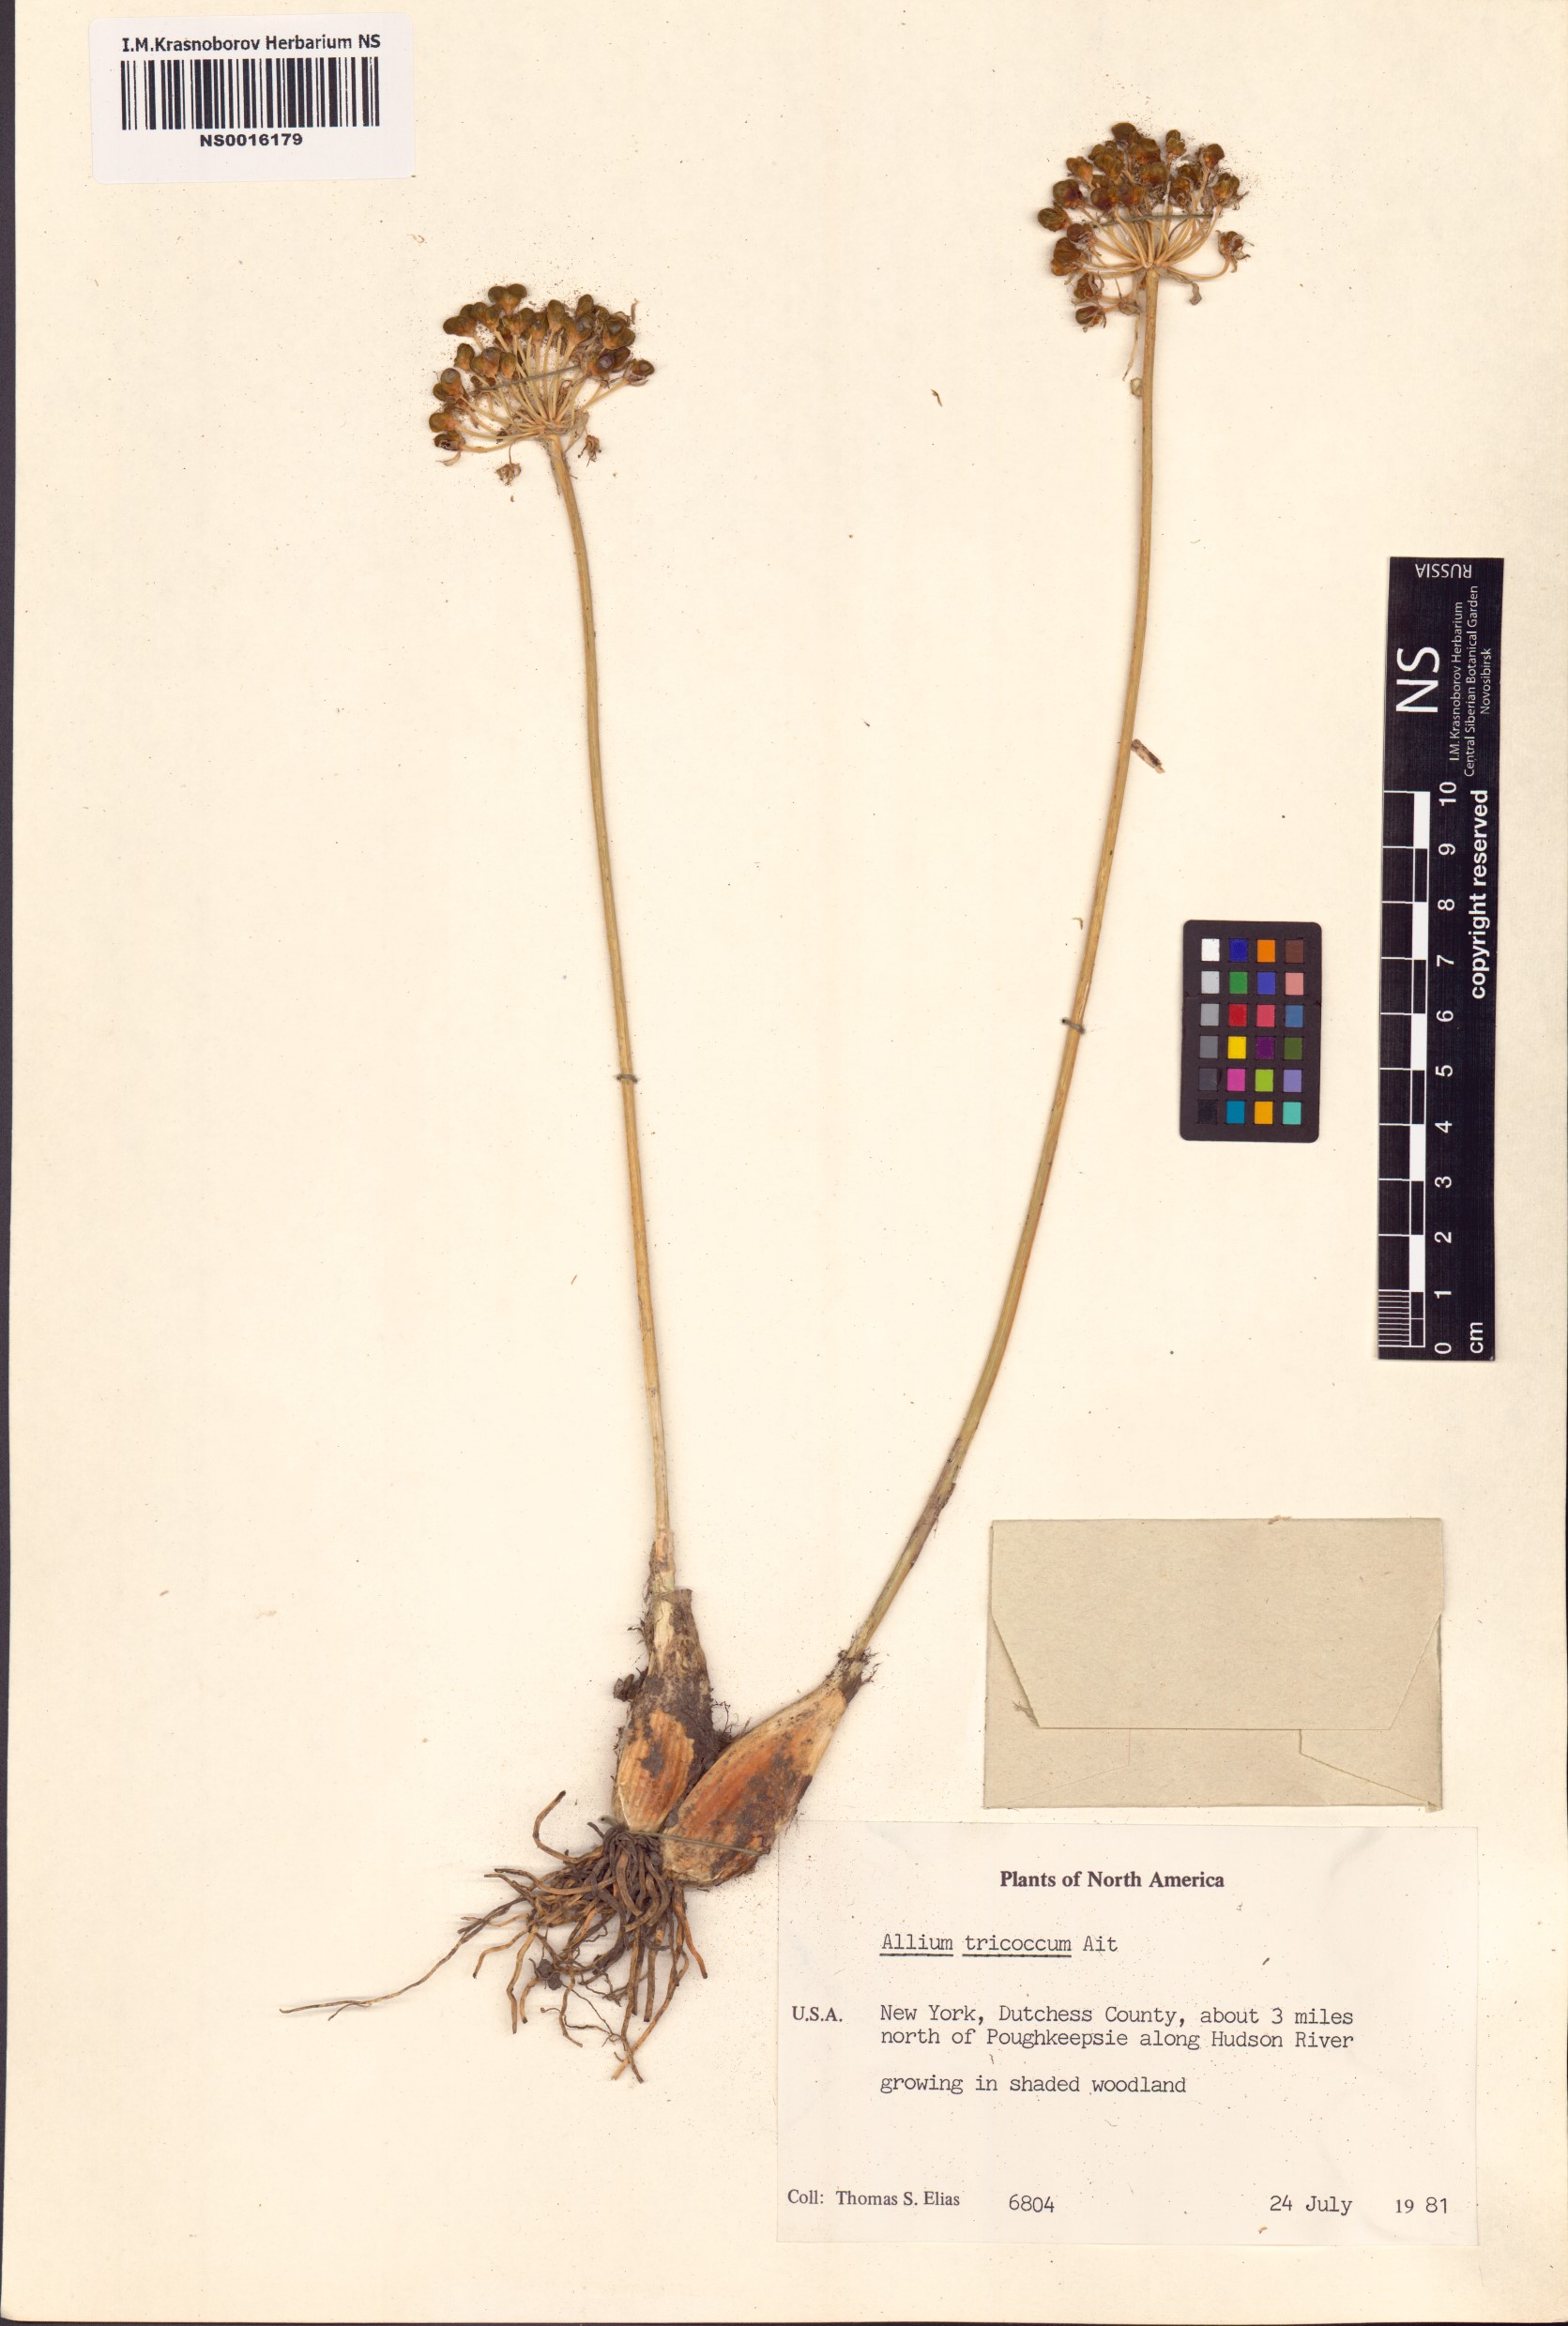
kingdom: Plantae
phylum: Tracheophyta
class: Liliopsida
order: Asparagales
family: Amaryllidaceae
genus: Allium
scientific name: Allium tricoccum
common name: Ramp
